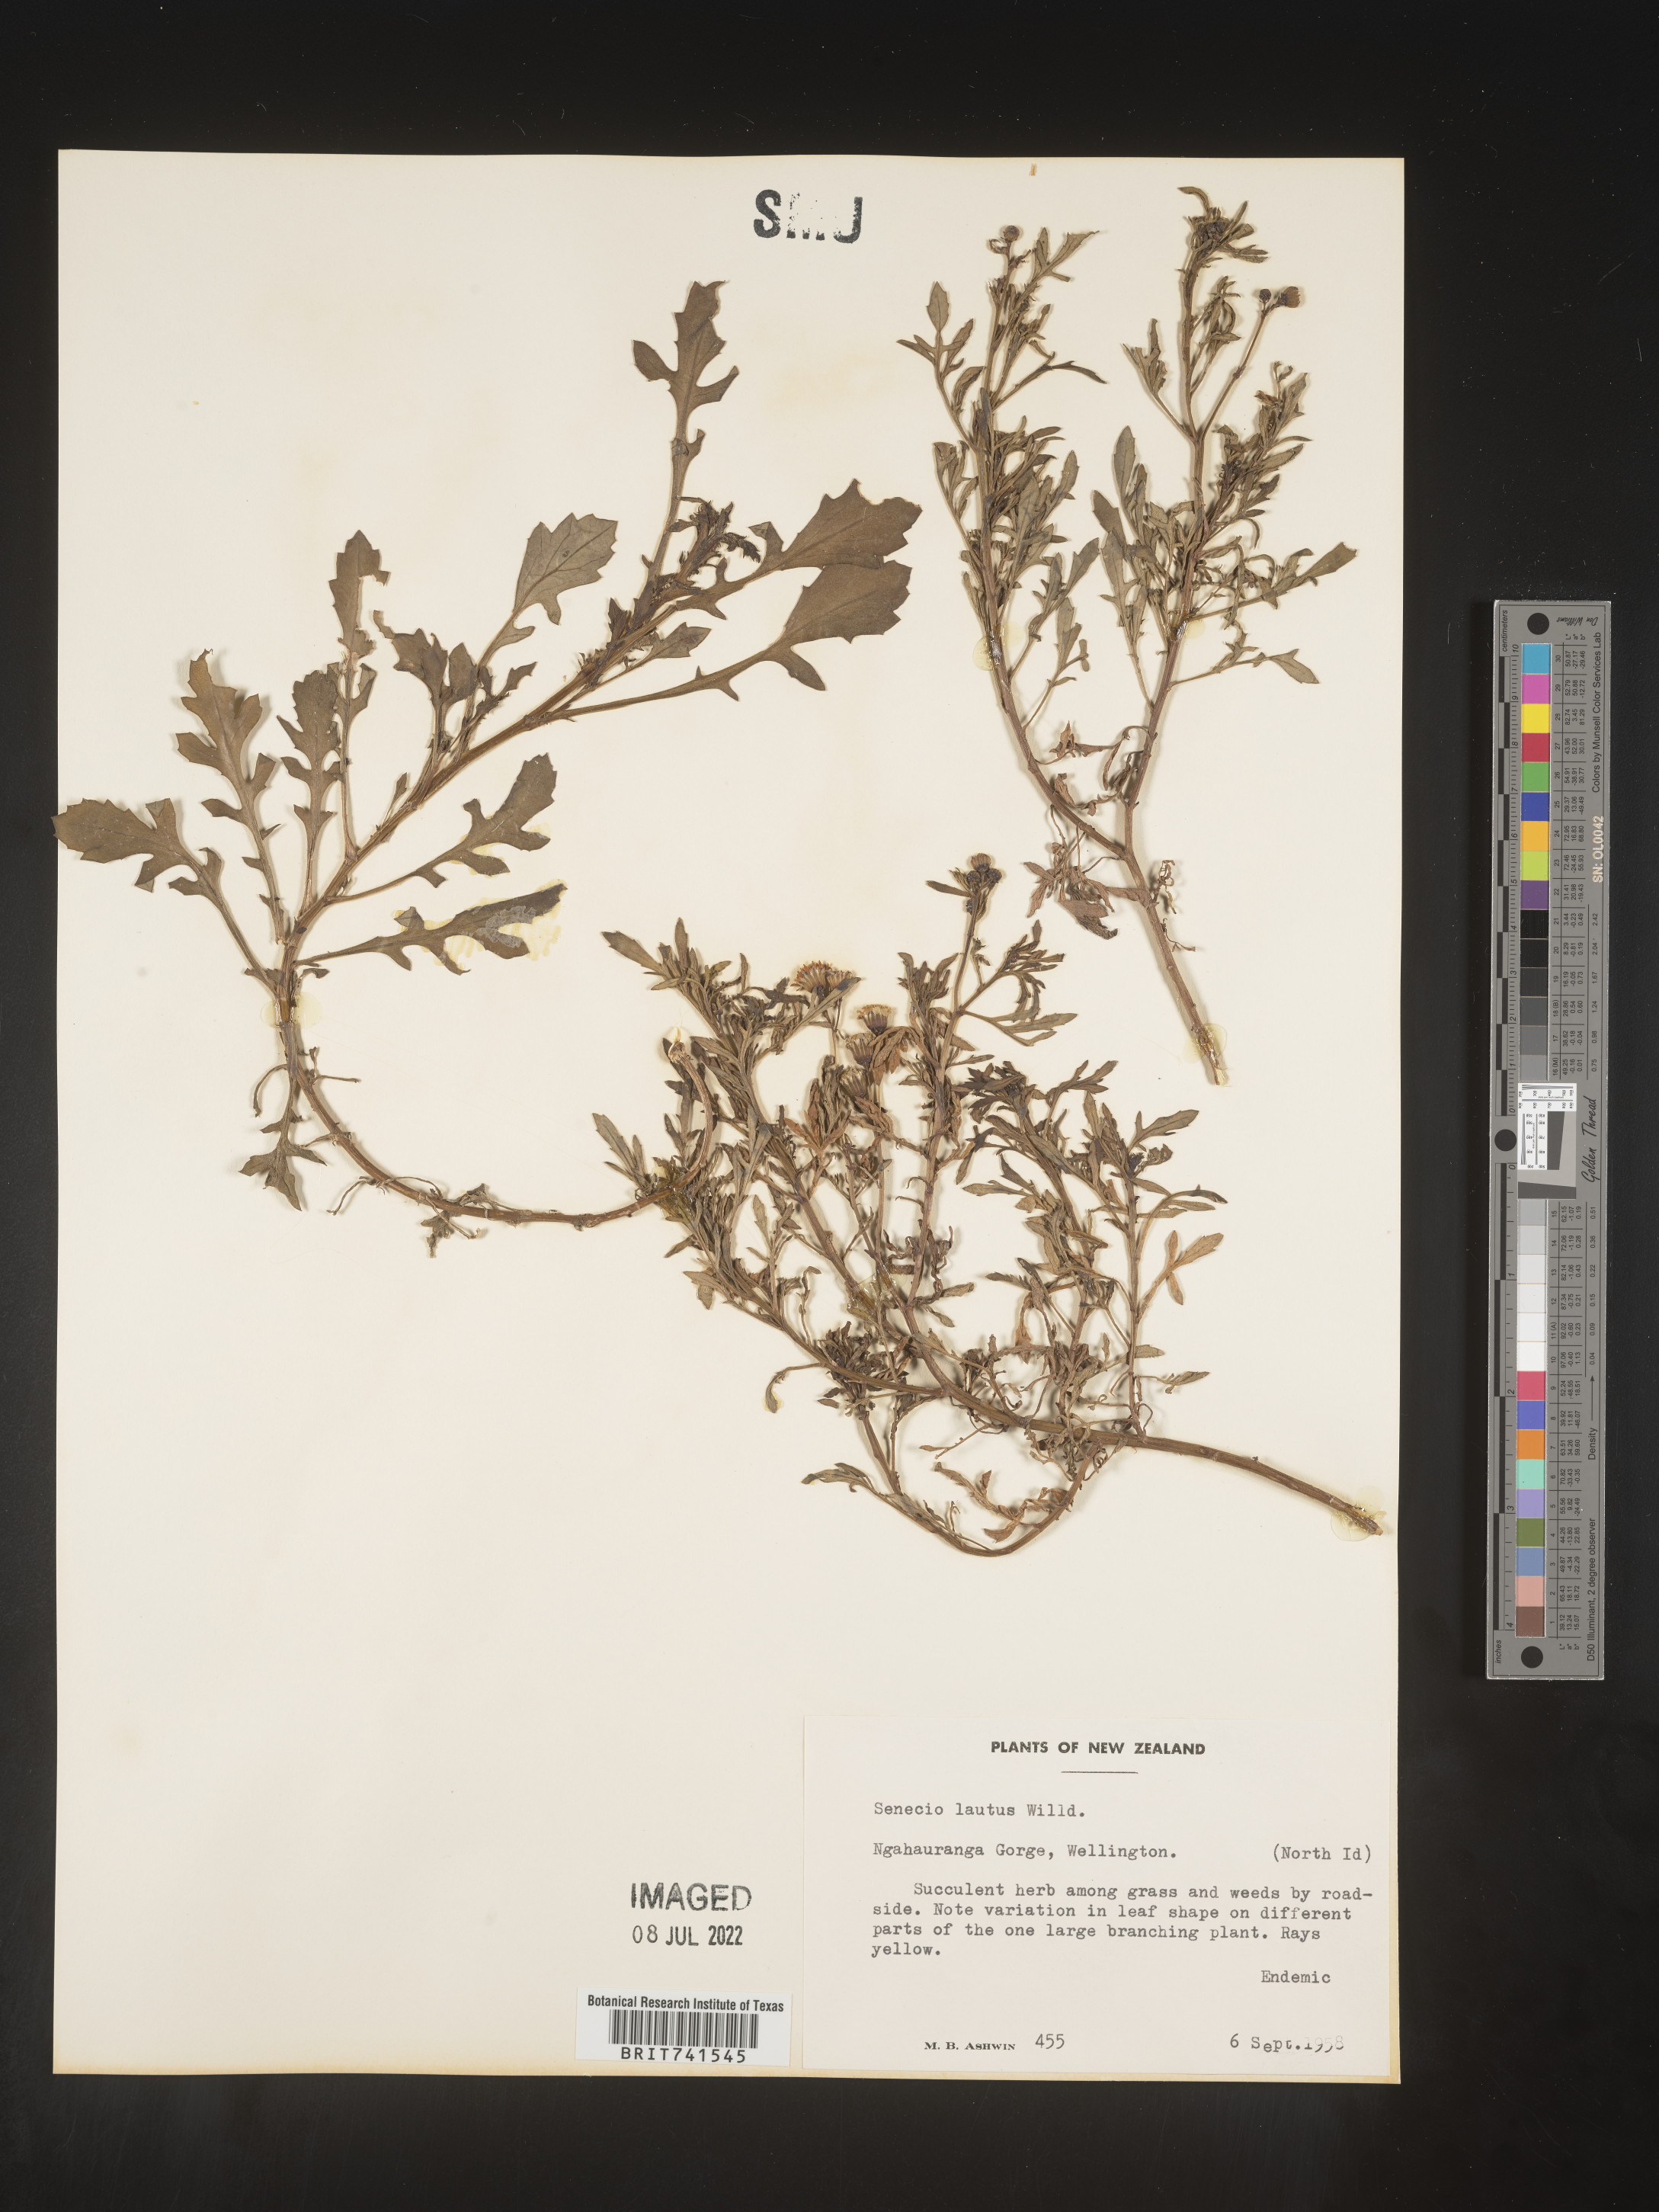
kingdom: Plantae
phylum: Tracheophyta
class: Magnoliopsida
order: Asterales
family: Asteraceae
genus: Senecio
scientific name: Senecio
